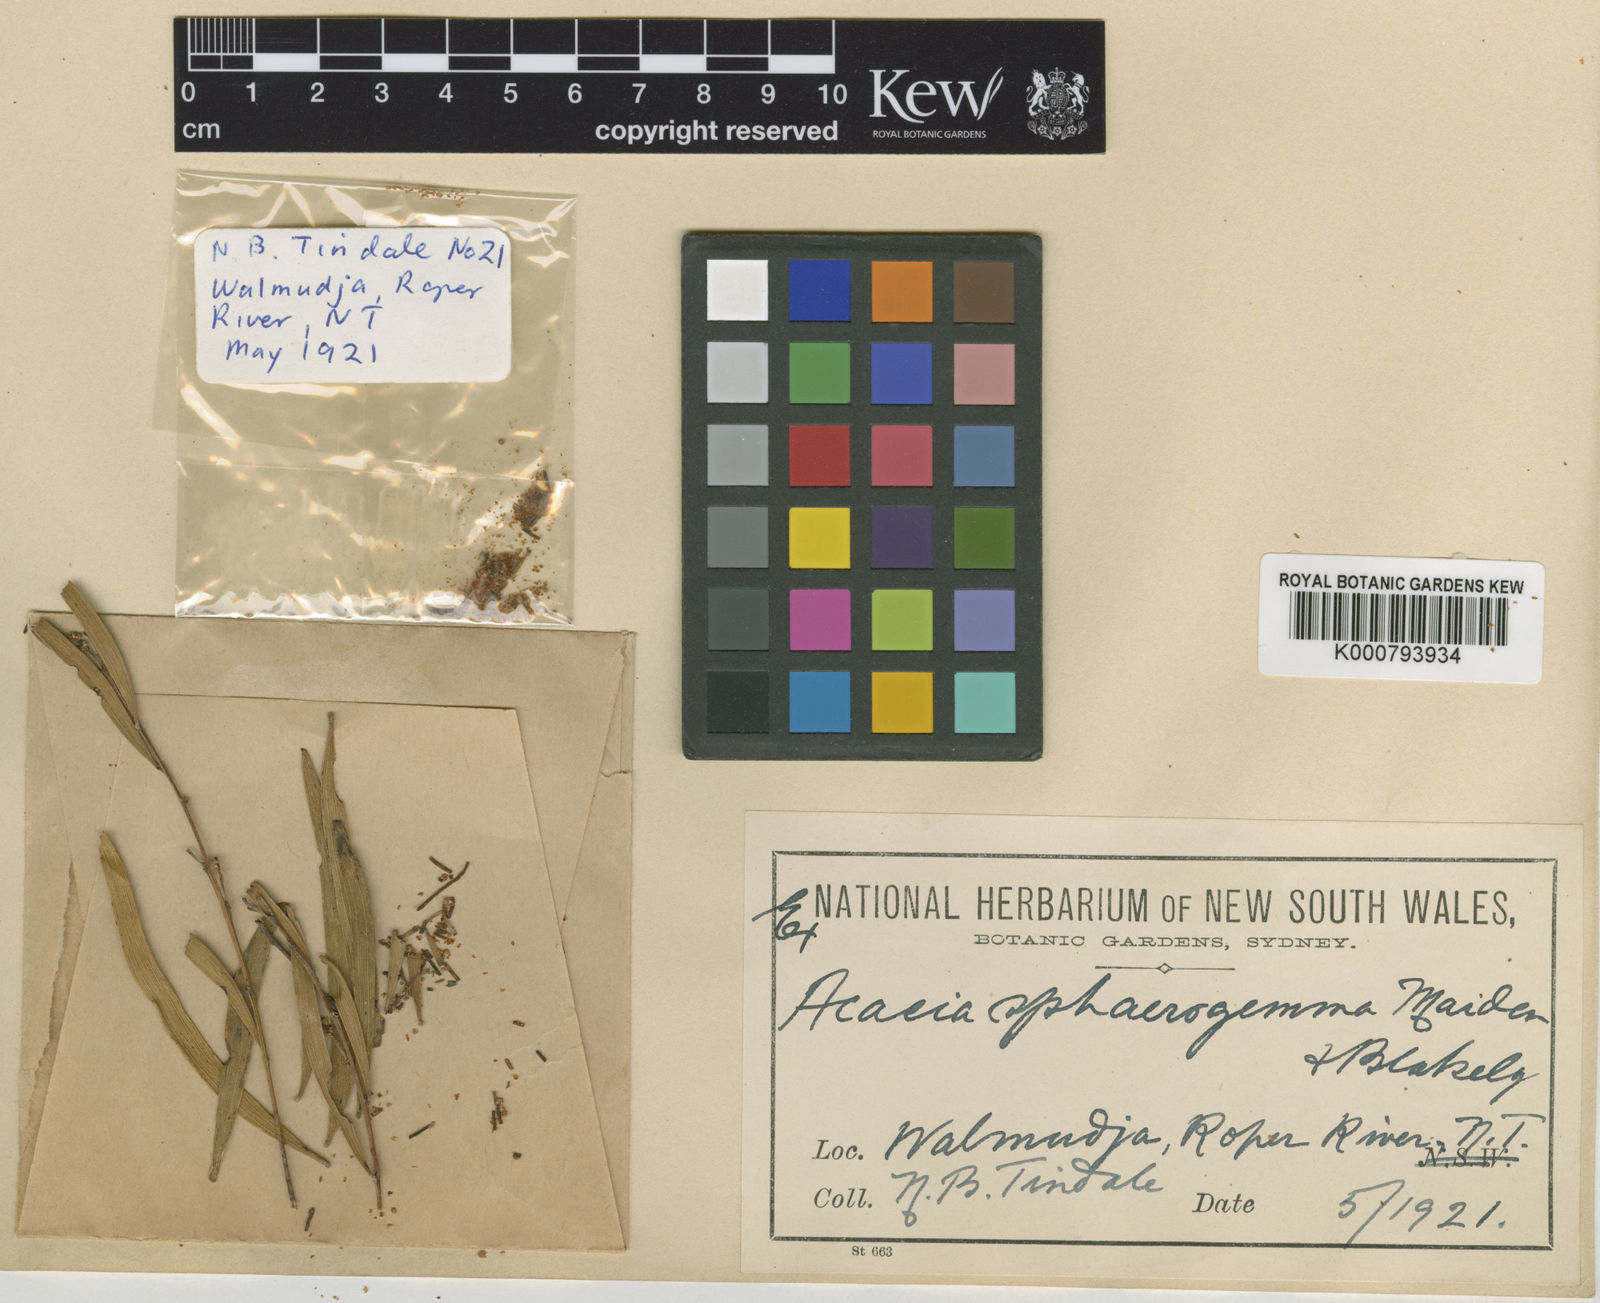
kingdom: Plantae
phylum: Tracheophyta
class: Magnoliopsida
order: Fabales
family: Fabaceae
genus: Acacia
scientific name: Acacia hammondii
